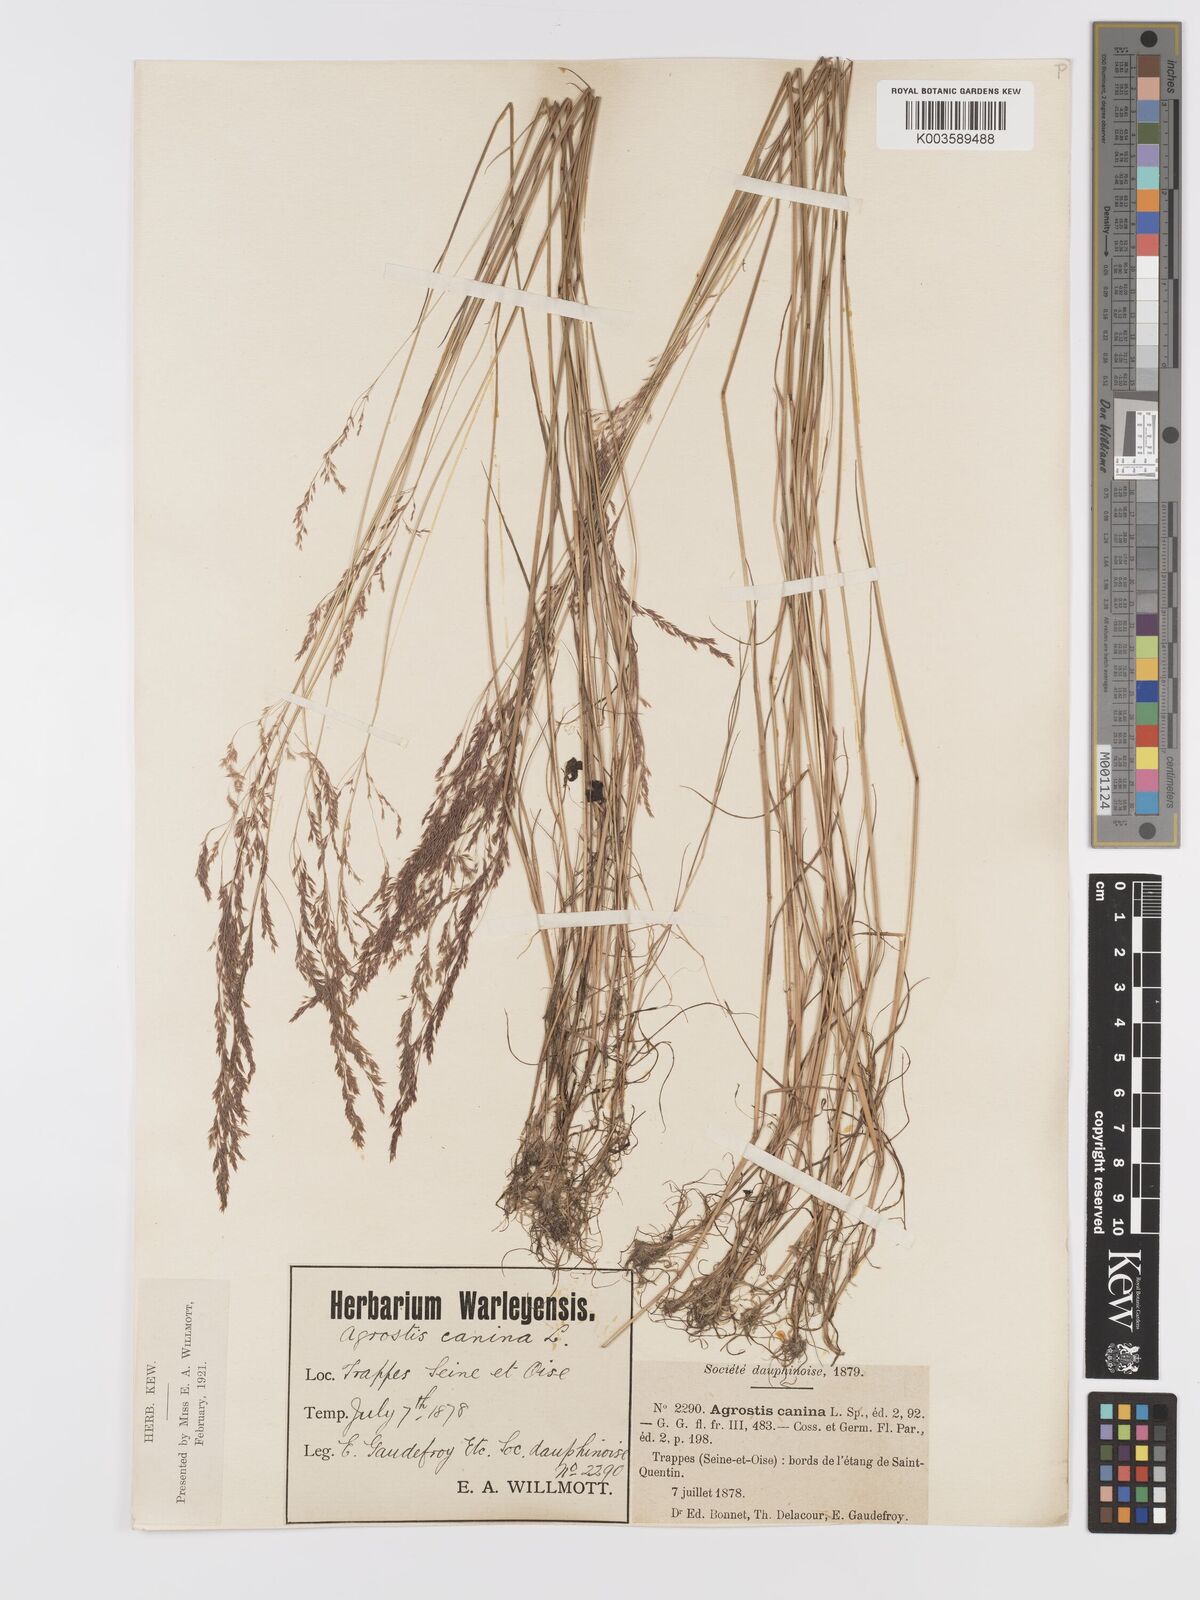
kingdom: Plantae
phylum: Tracheophyta
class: Liliopsida
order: Poales
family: Poaceae
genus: Agrostis
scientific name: Agrostis canina
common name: Velvet bent
